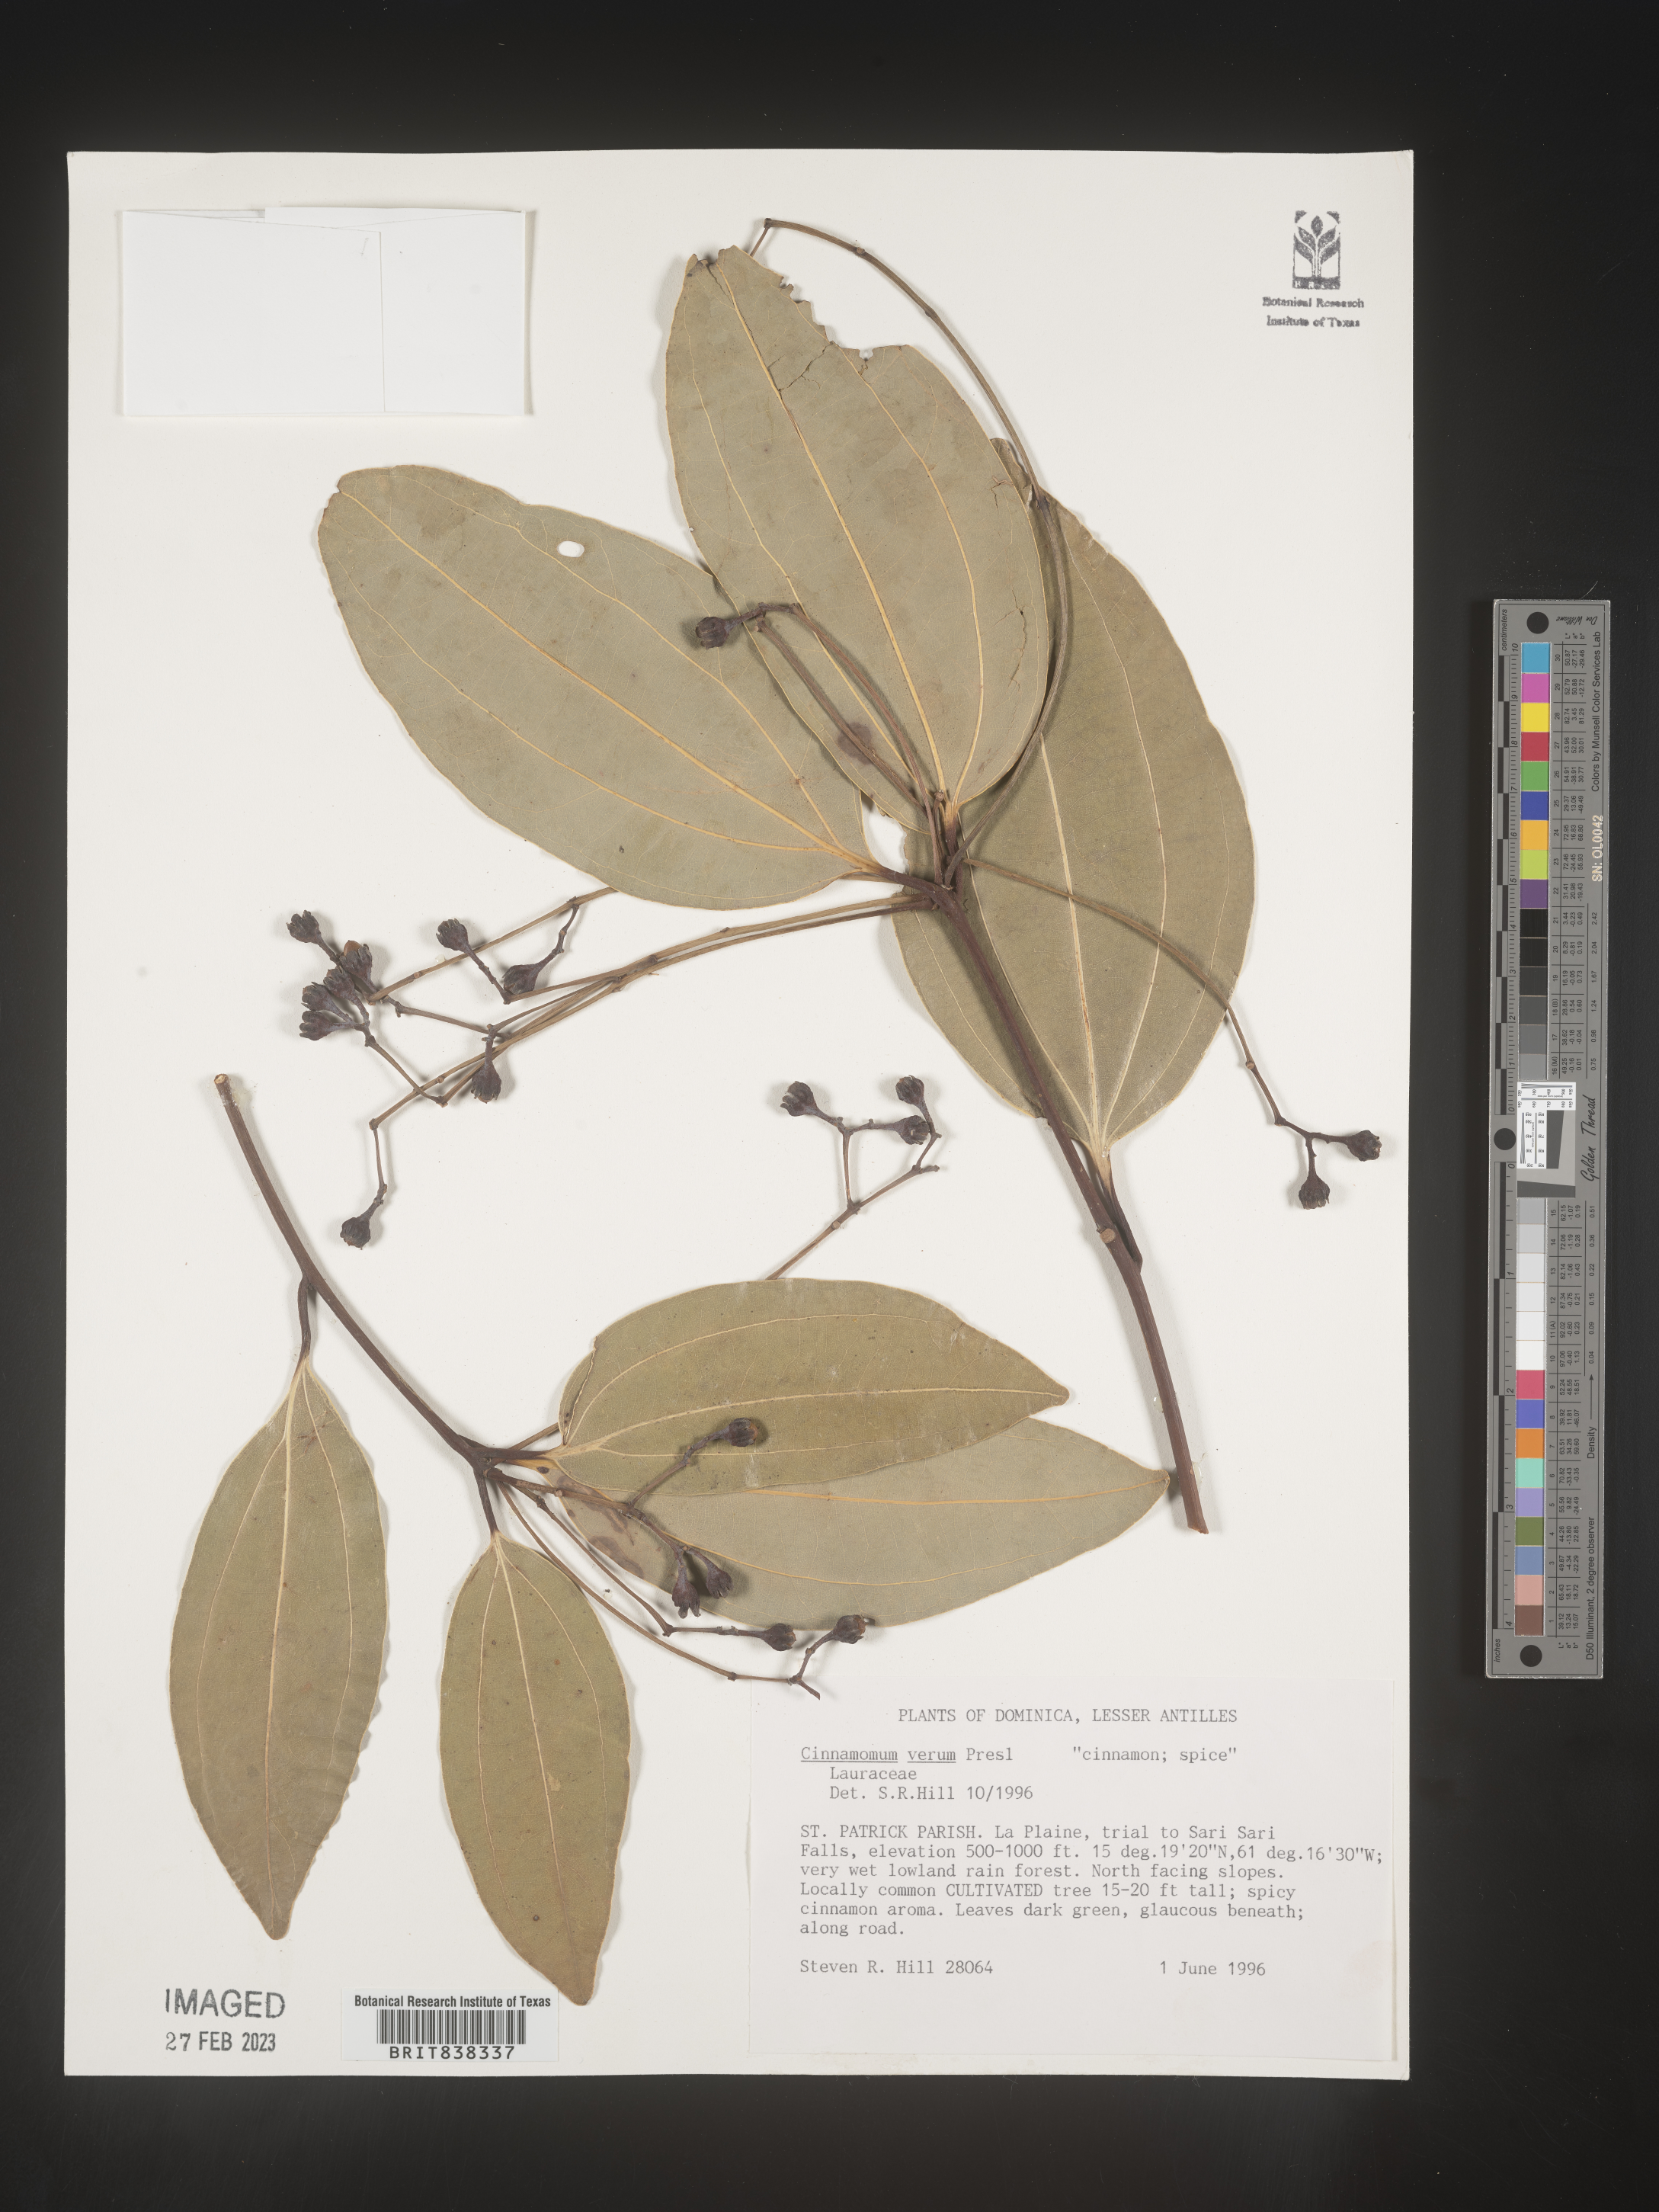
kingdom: Plantae
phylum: Tracheophyta
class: Magnoliopsida
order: Laurales
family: Lauraceae
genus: Cinnamomum
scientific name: Cinnamomum verum
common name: Cinnamon
